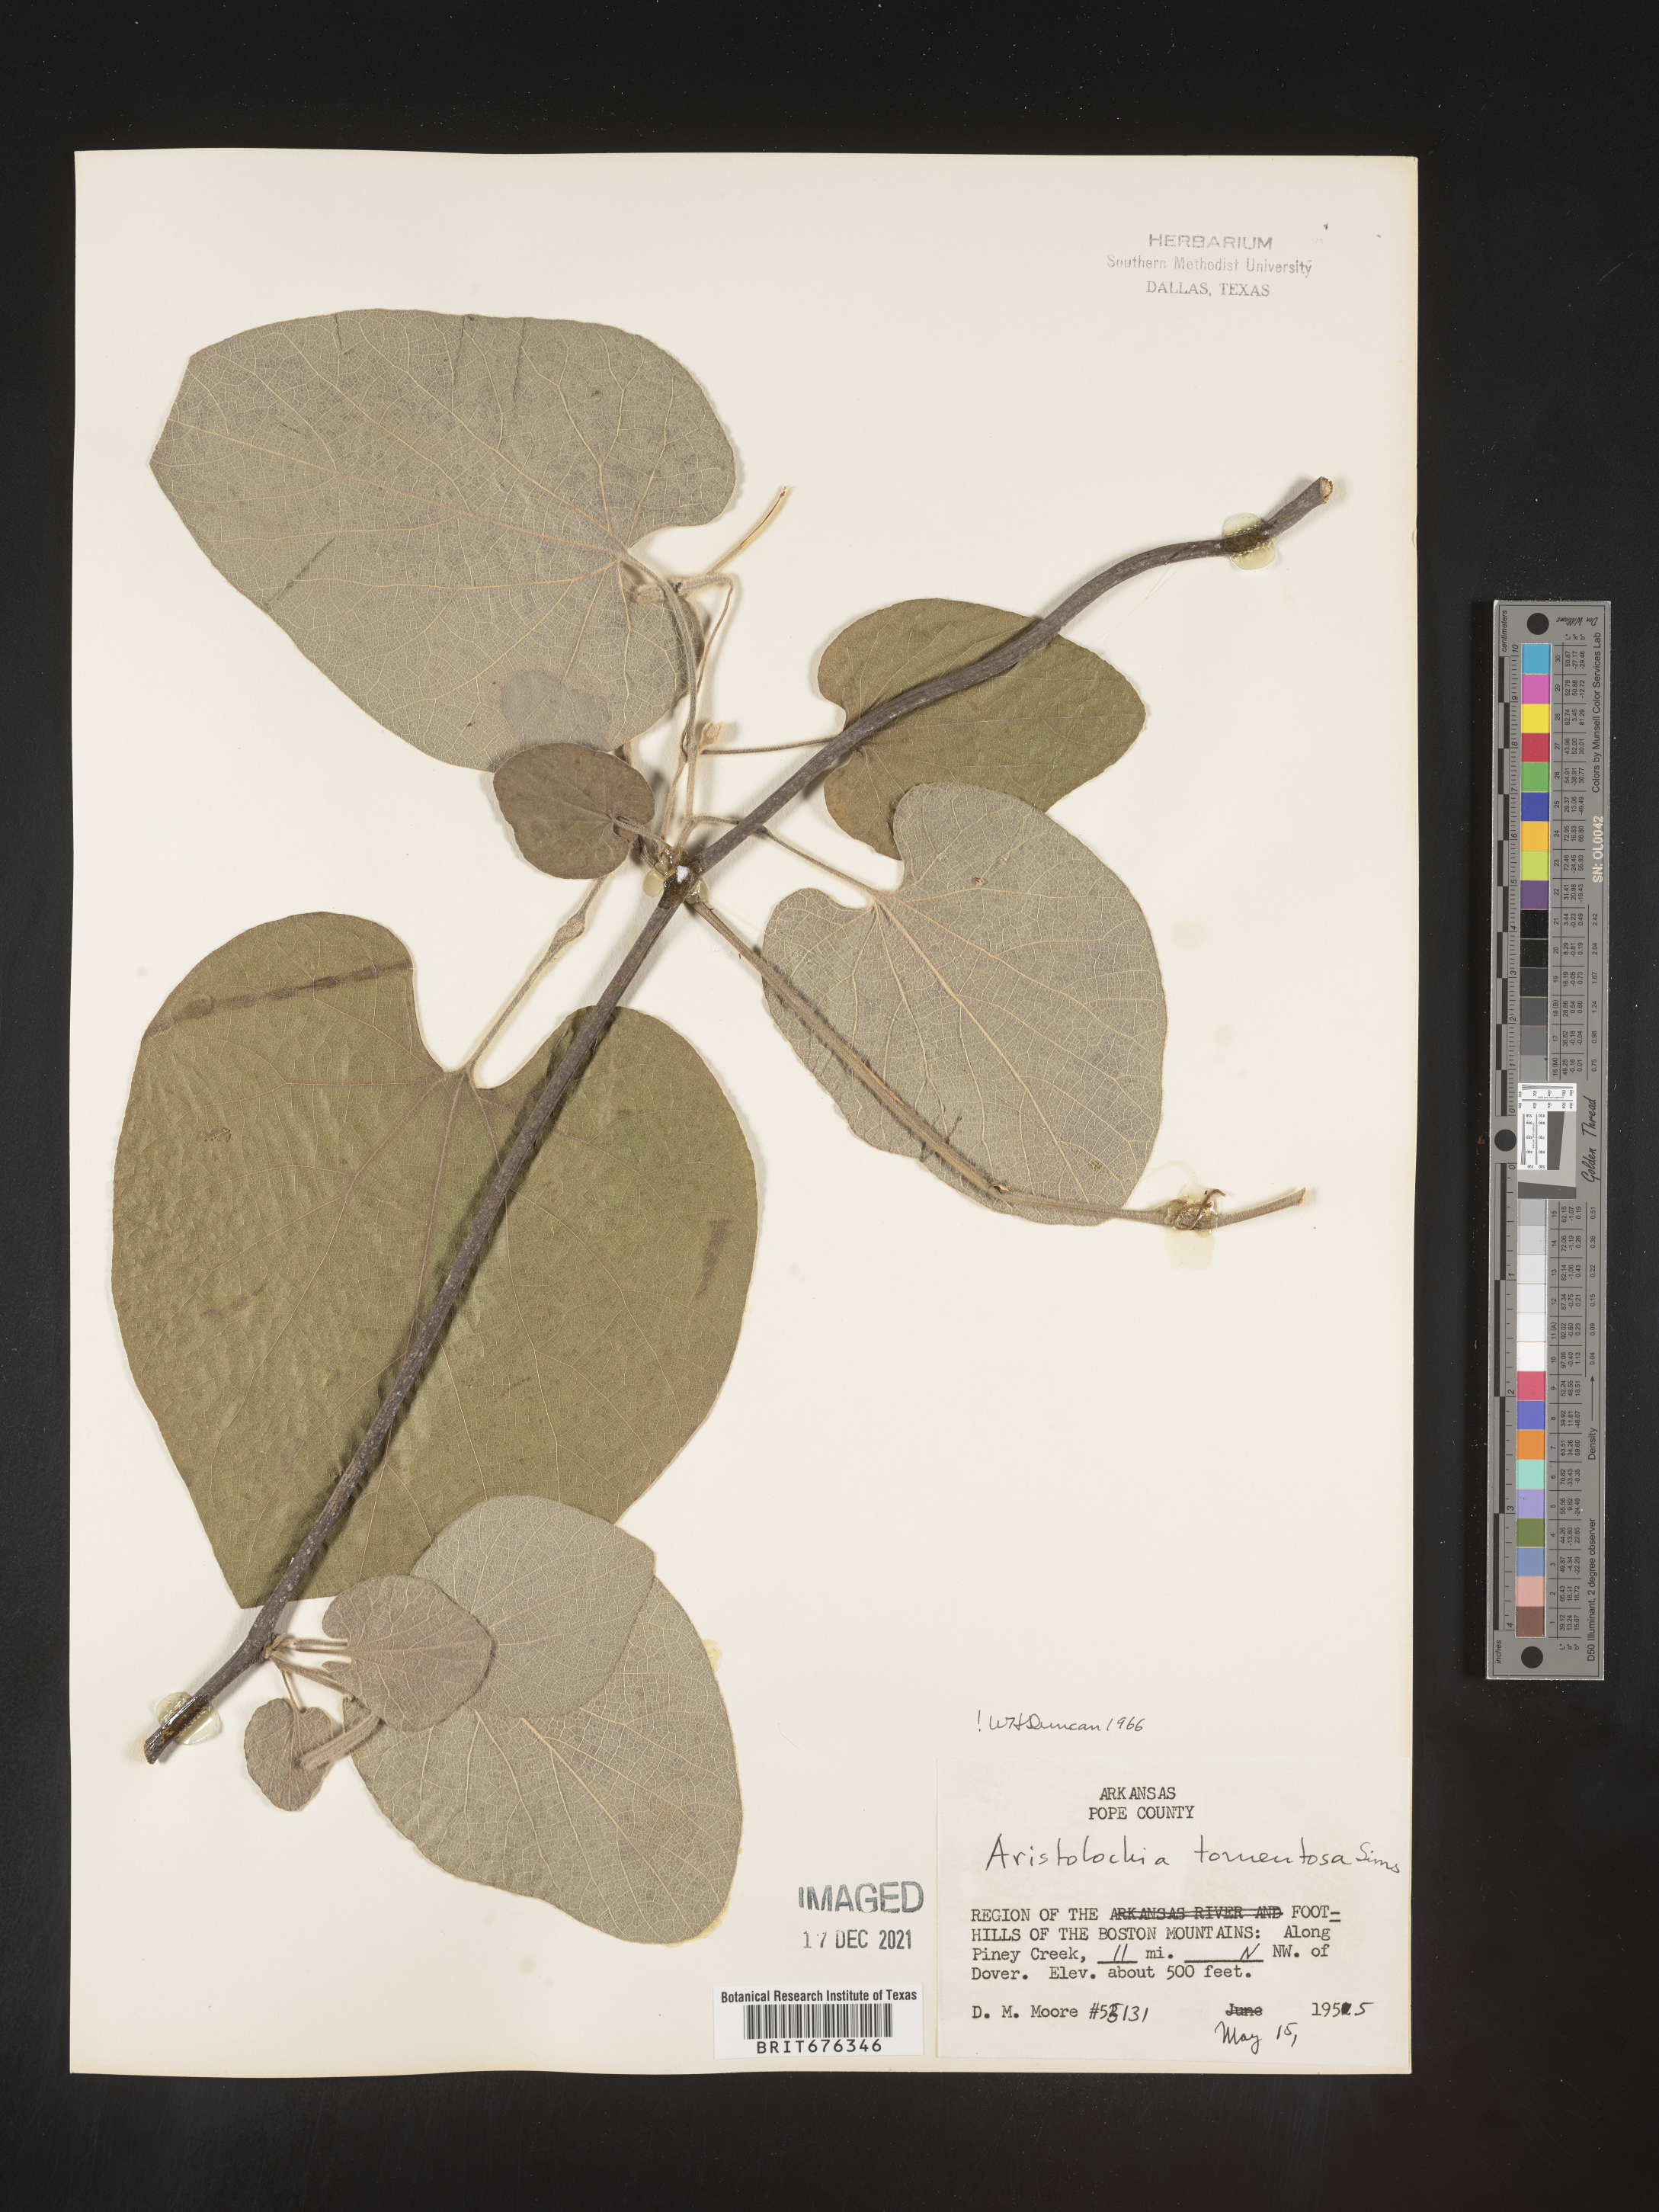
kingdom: Plantae
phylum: Tracheophyta
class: Magnoliopsida
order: Piperales
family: Aristolochiaceae
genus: Isotrema
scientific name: Isotrema tomentosum
